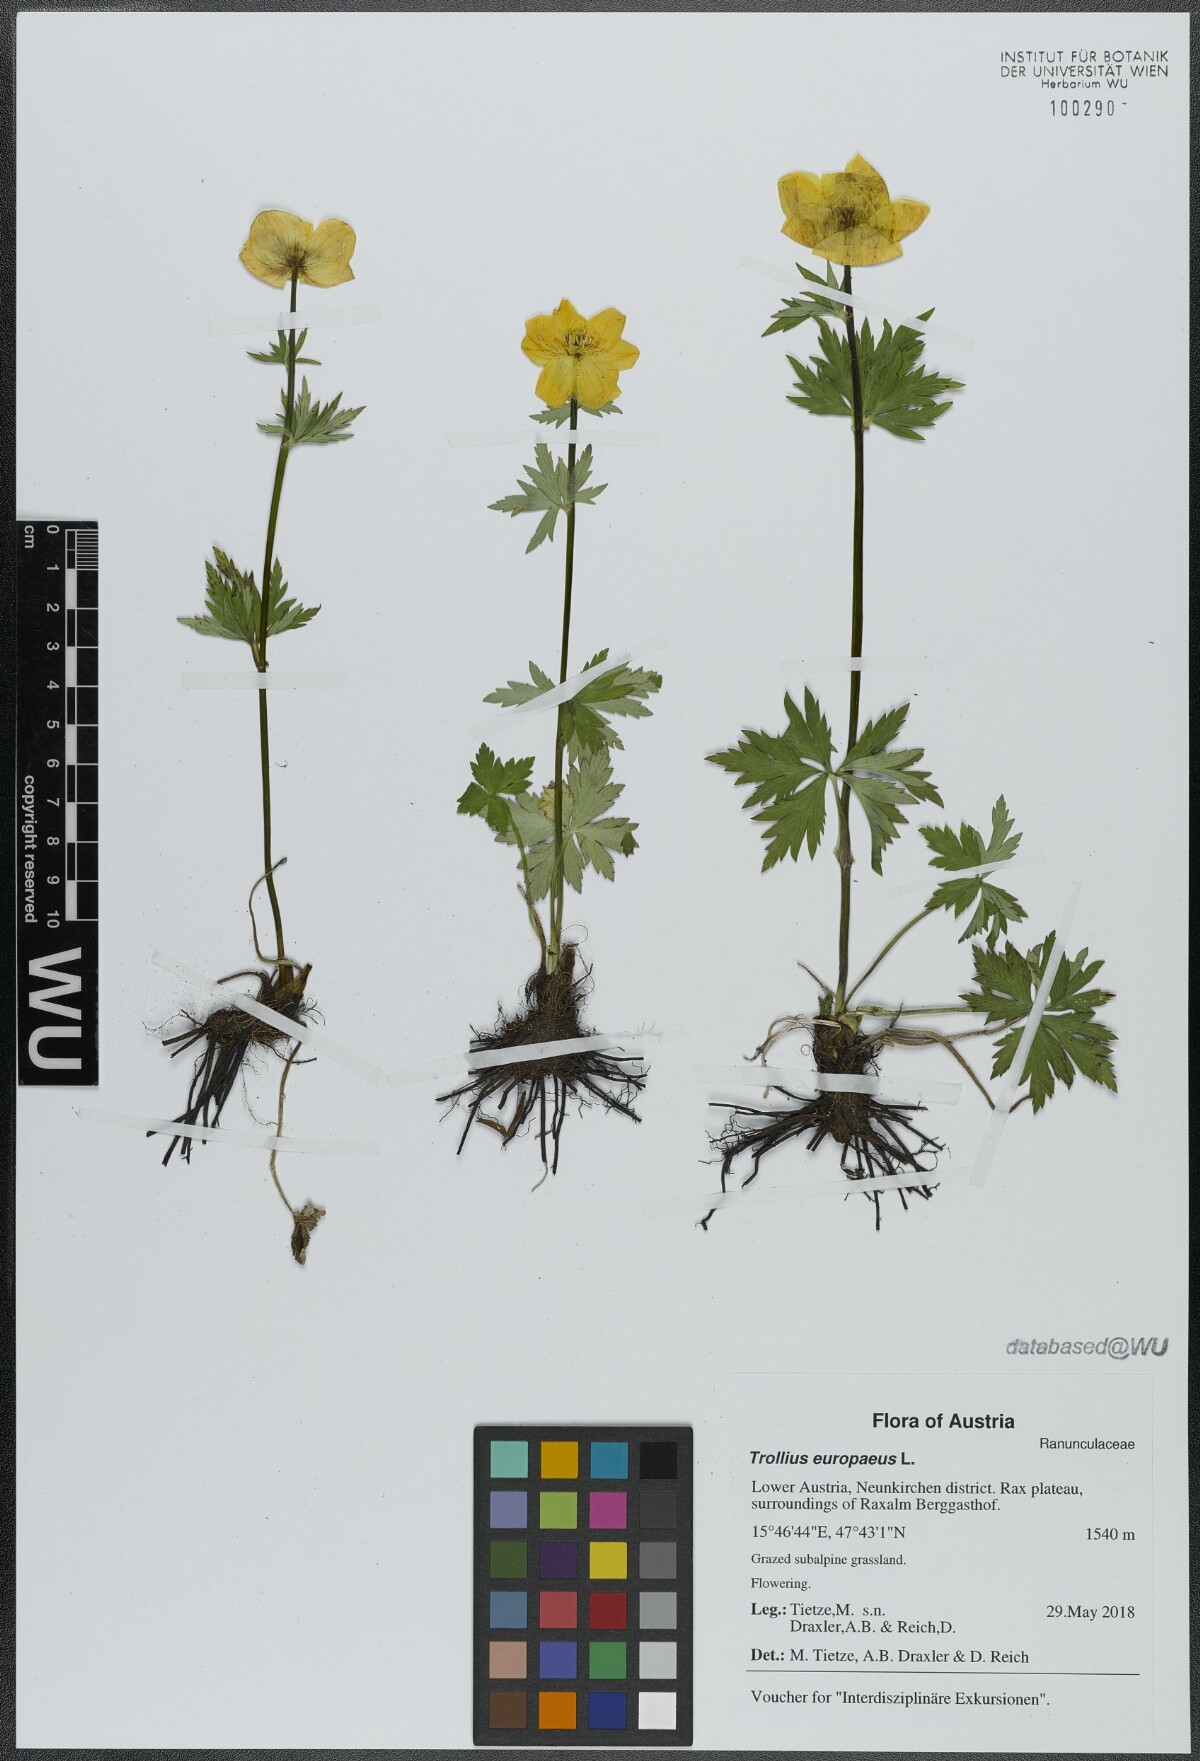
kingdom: Plantae
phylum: Tracheophyta
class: Magnoliopsida
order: Ranunculales
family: Ranunculaceae
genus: Trollius
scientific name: Trollius europaeus
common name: European globeflower
